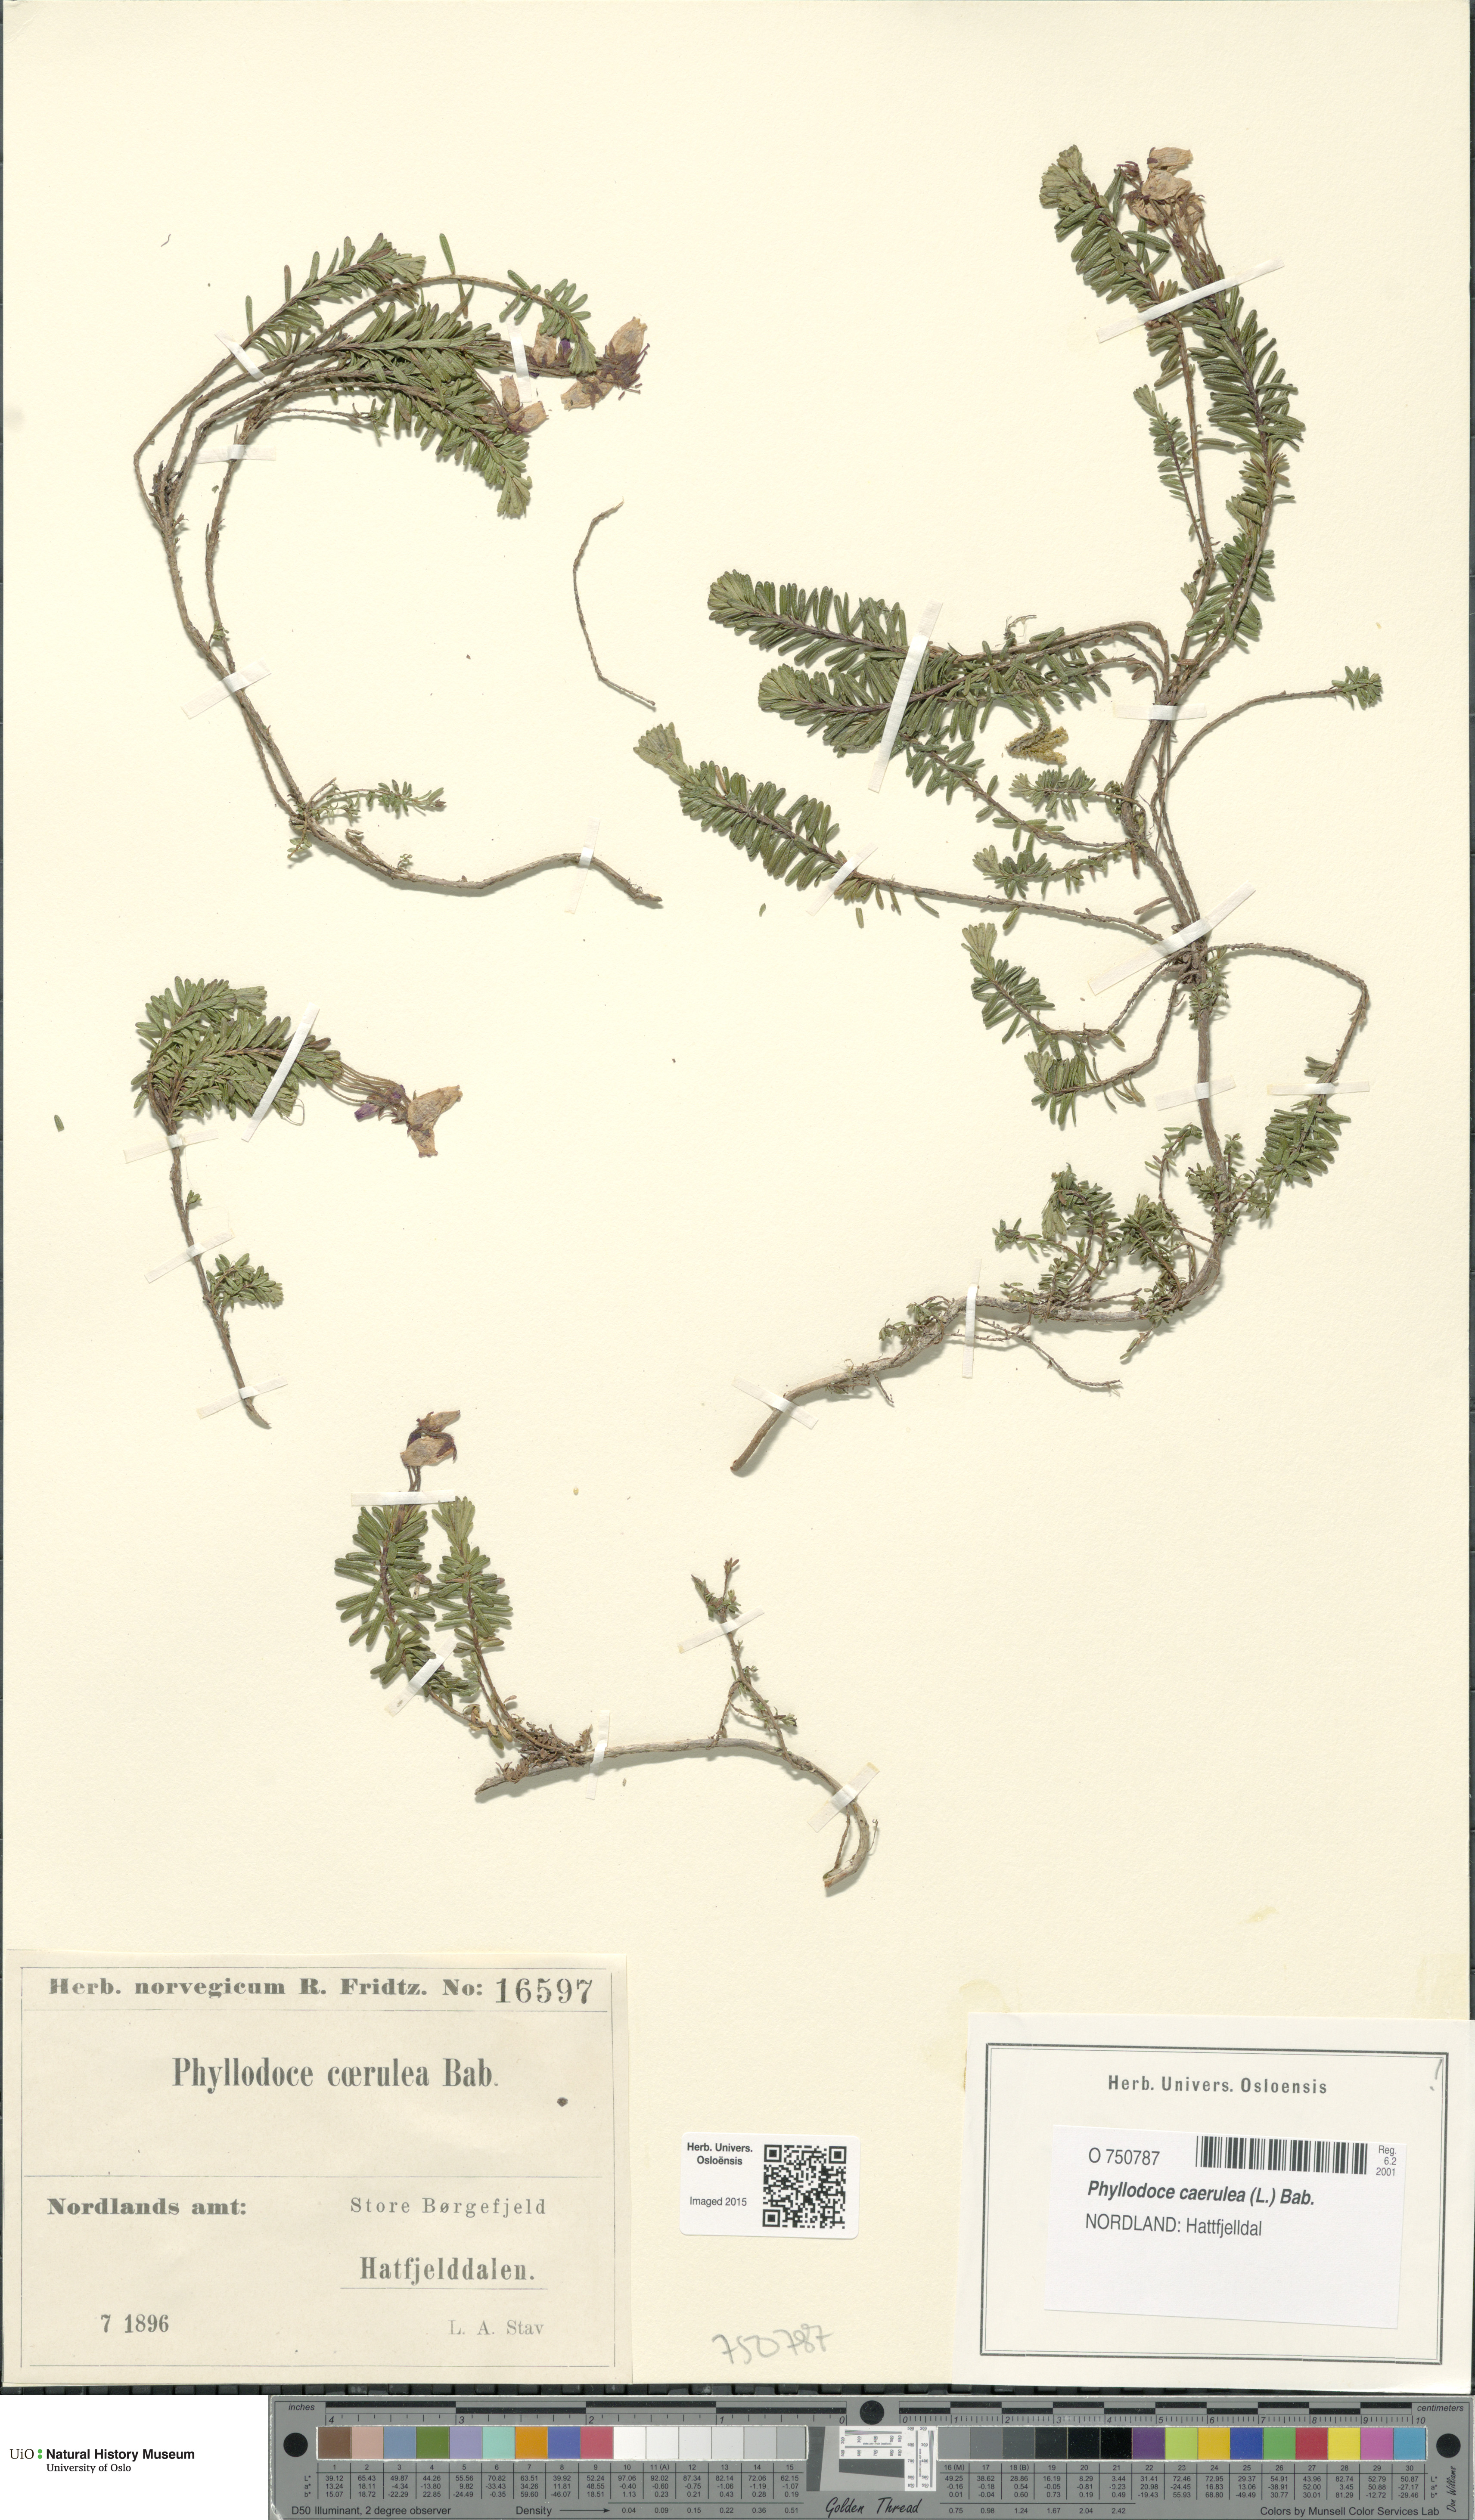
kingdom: Plantae
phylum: Tracheophyta
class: Magnoliopsida
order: Ericales
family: Ericaceae
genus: Phyllodoce
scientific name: Phyllodoce caerulea
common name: Blue heath
